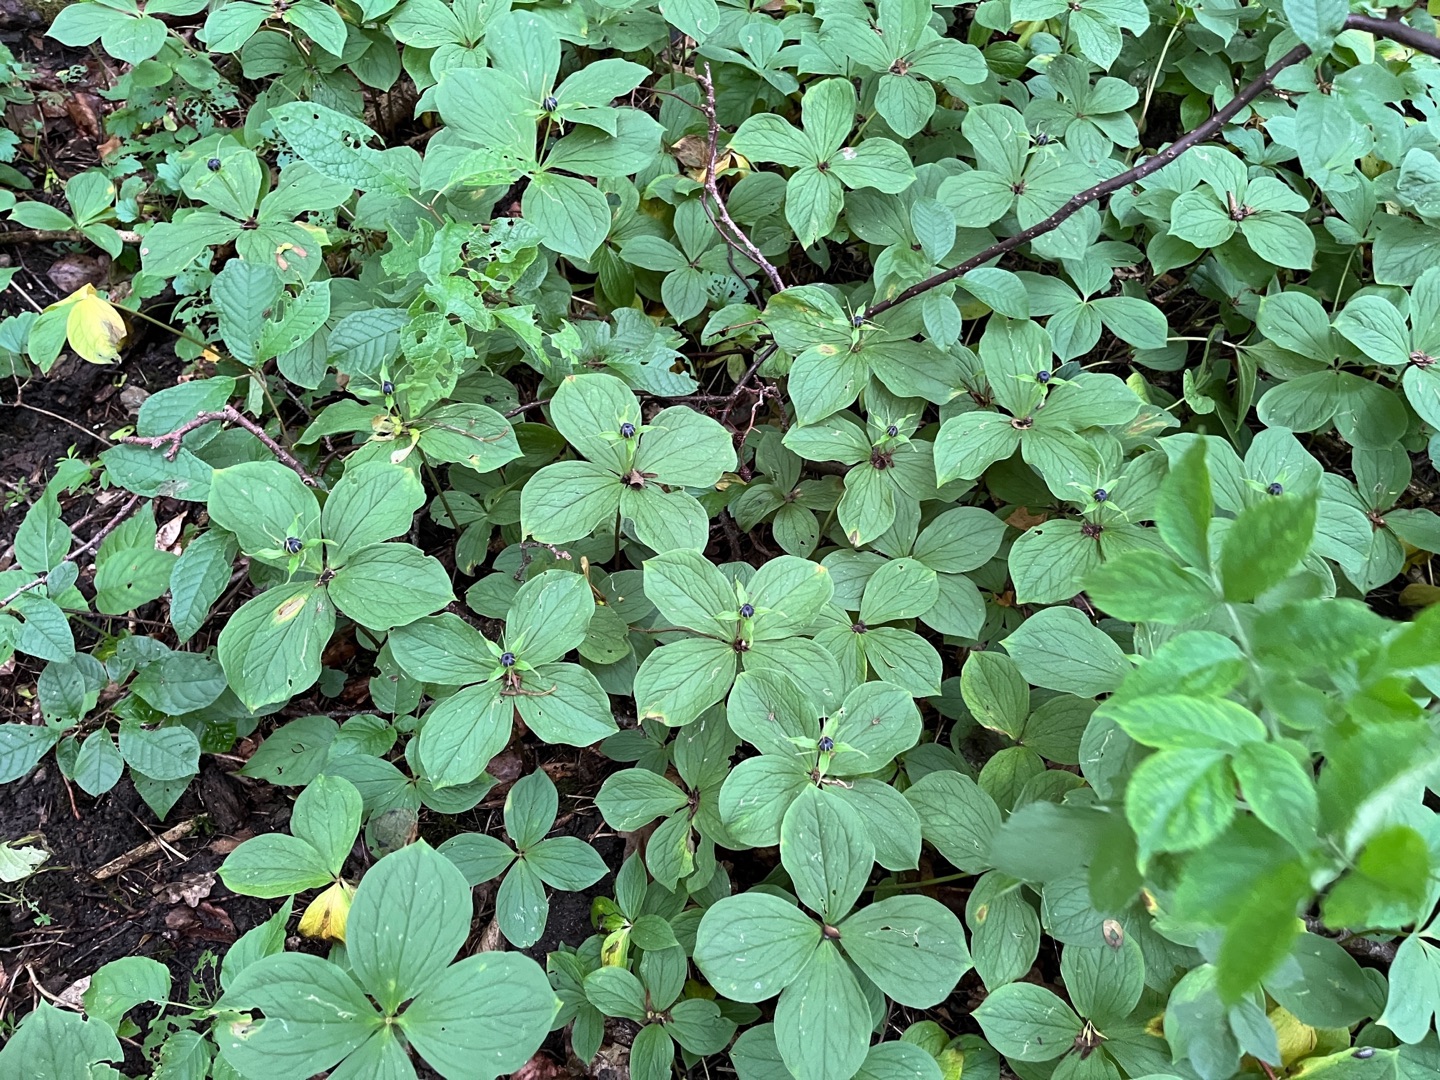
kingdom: Plantae
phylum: Tracheophyta
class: Liliopsida
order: Liliales
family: Melanthiaceae
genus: Paris
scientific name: Paris quadrifolia
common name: Firblad
